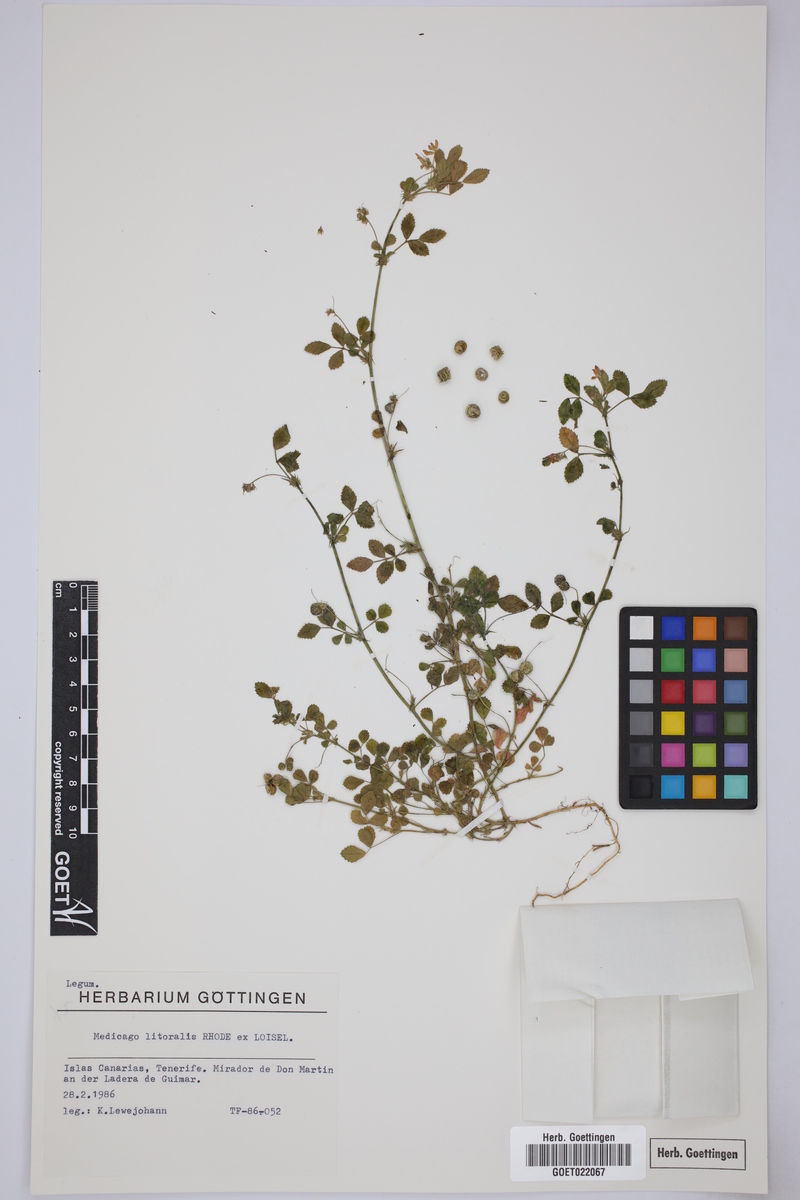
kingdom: Plantae
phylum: Tracheophyta
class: Magnoliopsida
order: Fabales
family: Fabaceae
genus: Medicago
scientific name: Medicago littoralis
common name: Shore medick
